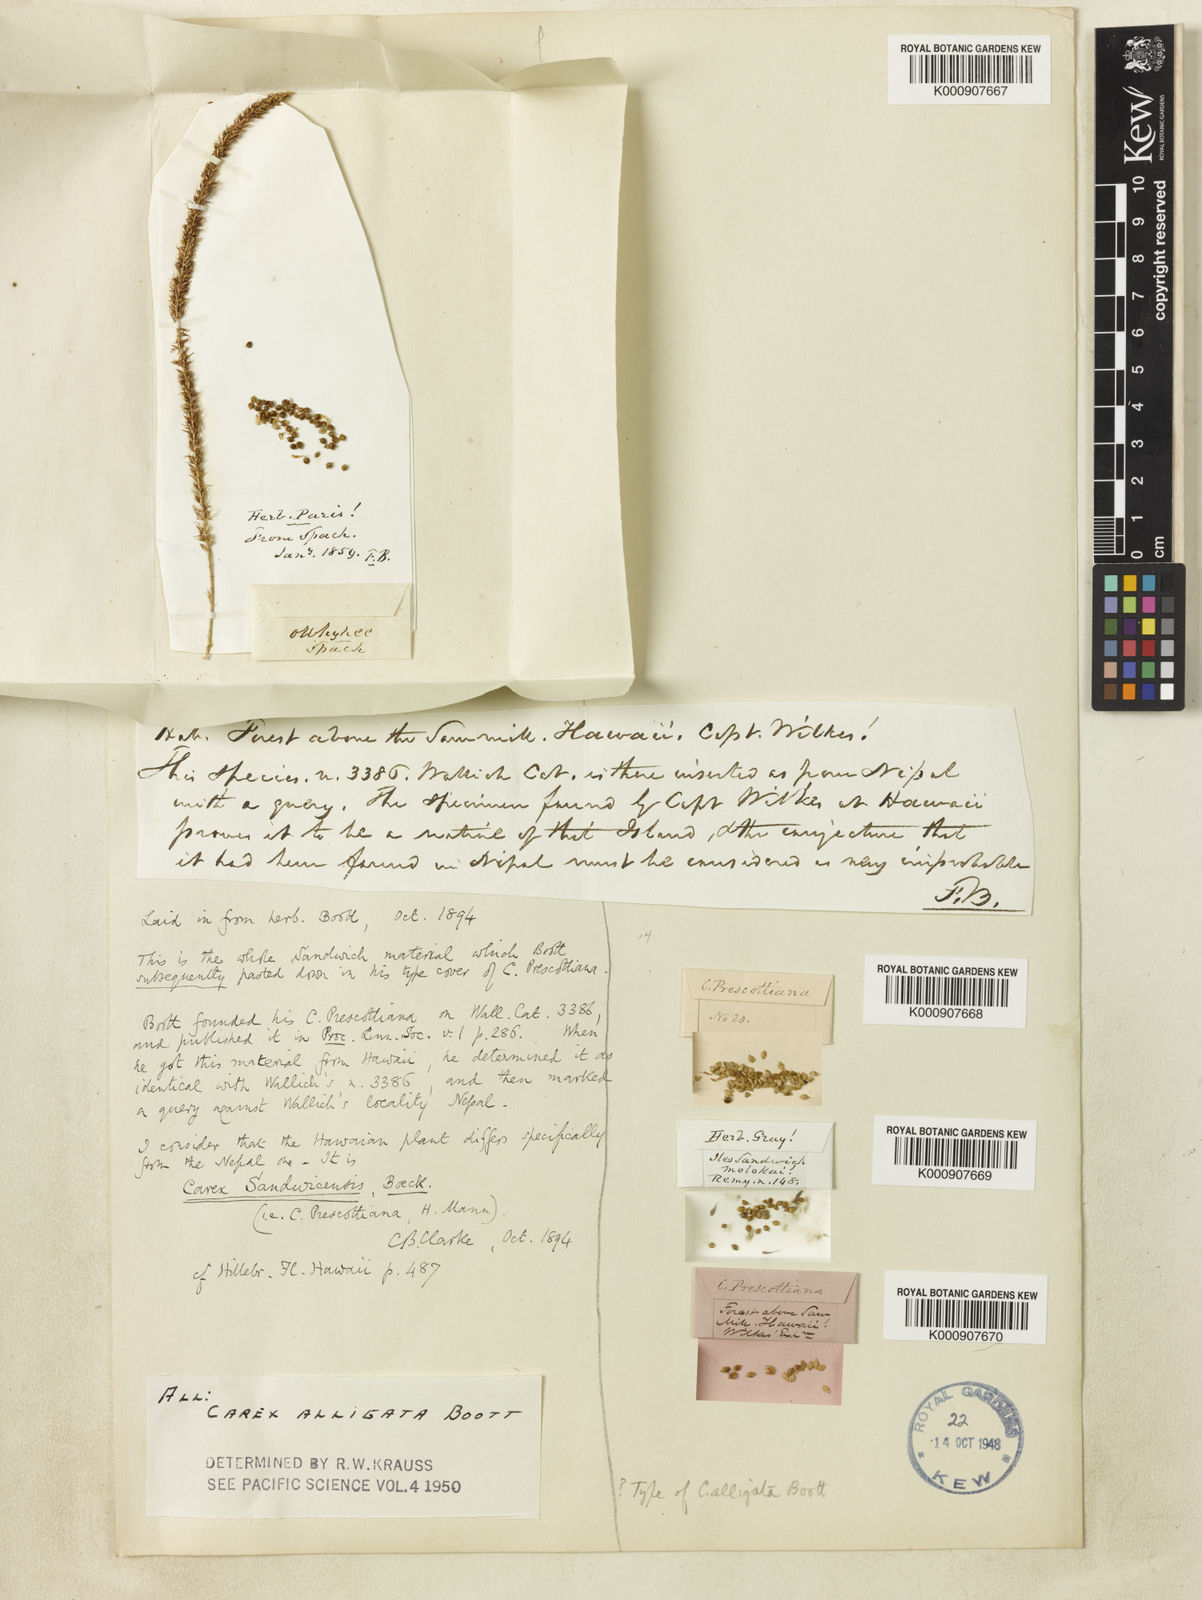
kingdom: Plantae
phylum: Tracheophyta
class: Liliopsida
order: Poales
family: Cyperaceae
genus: Carex
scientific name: Carex alligata
